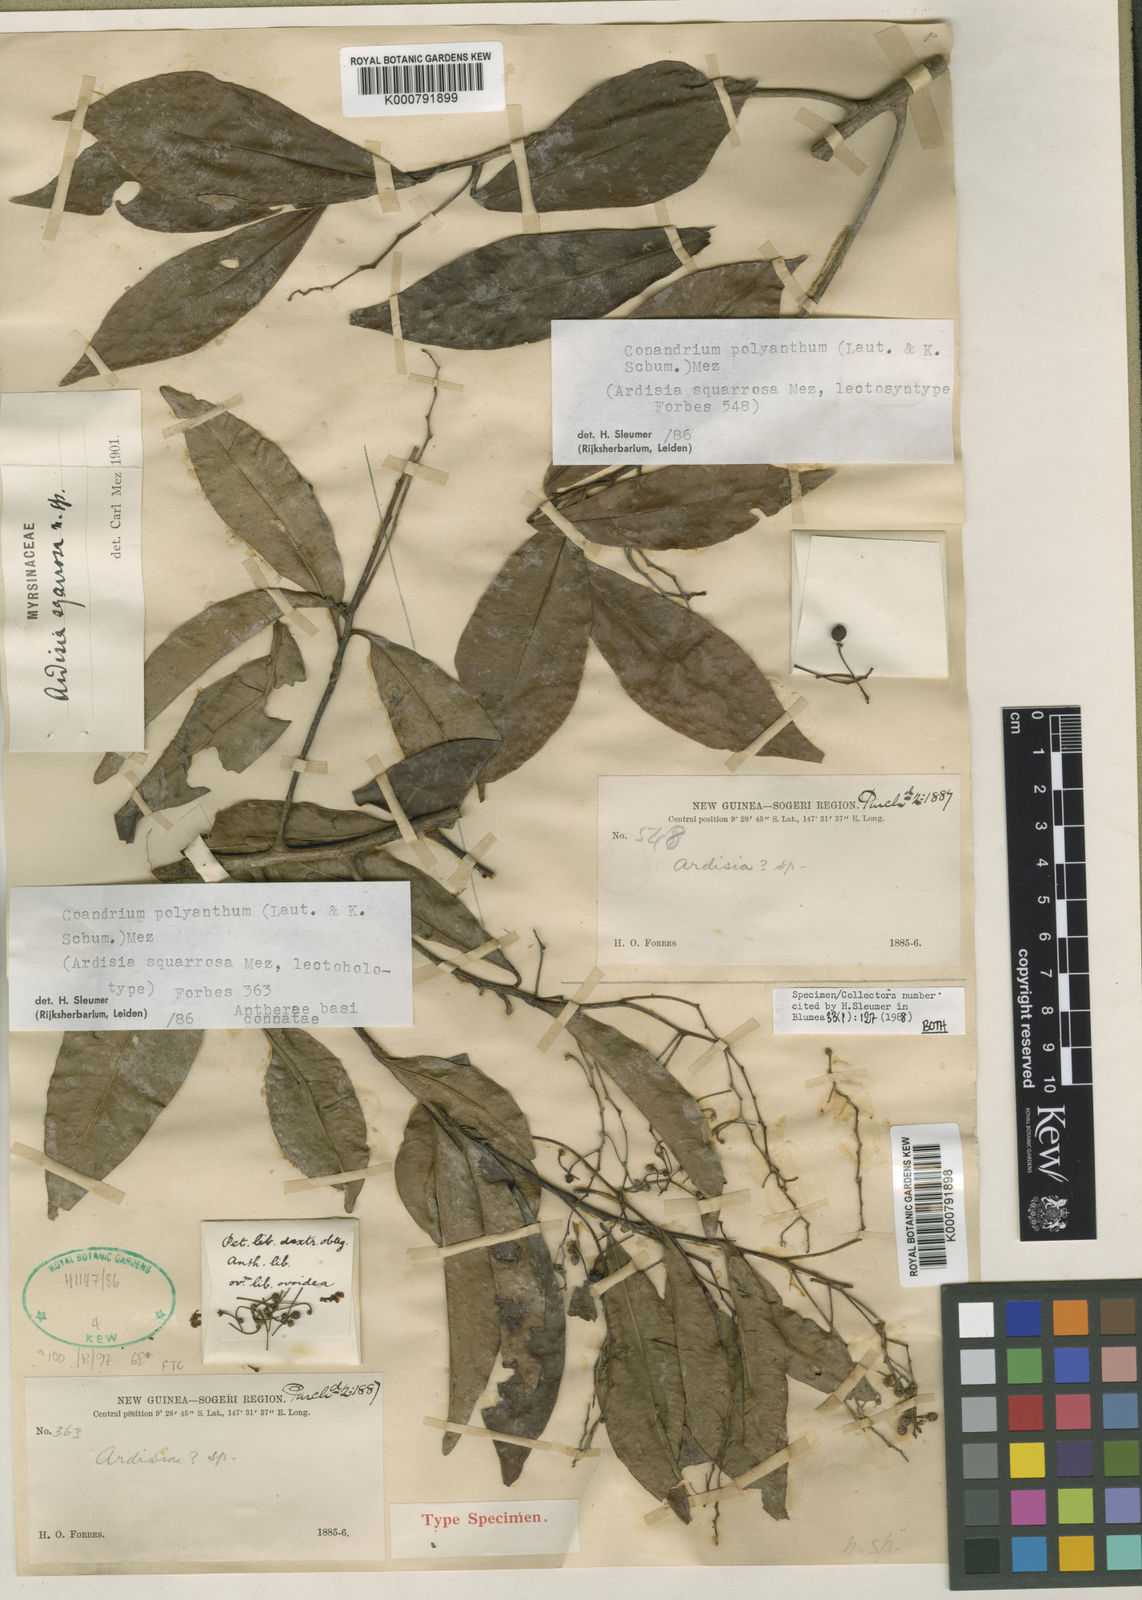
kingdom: Plantae
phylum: Tracheophyta
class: Magnoliopsida
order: Ericales
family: Primulaceae
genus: Ardisia
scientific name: Ardisia squarrosa
